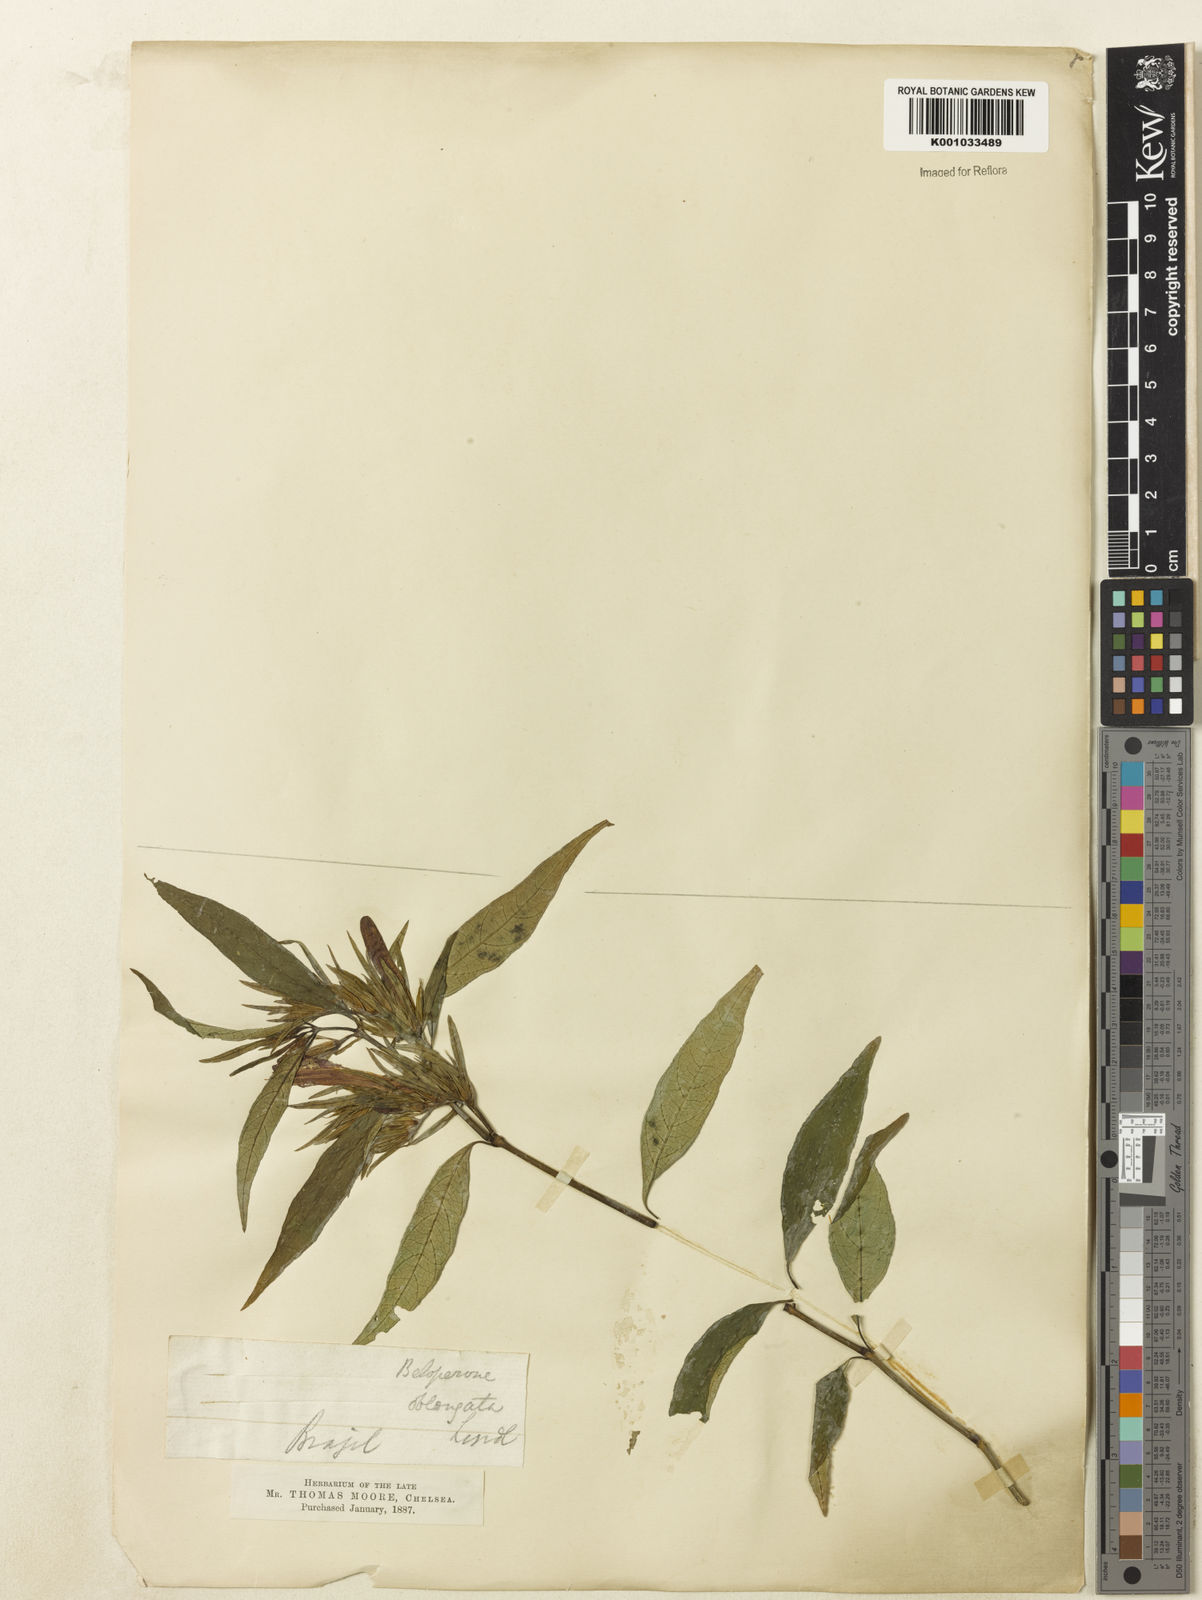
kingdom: Plantae
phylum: Tracheophyta
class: Magnoliopsida
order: Lamiales
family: Acanthaceae
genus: Justicia
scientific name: Justicia plumbaginifolia
